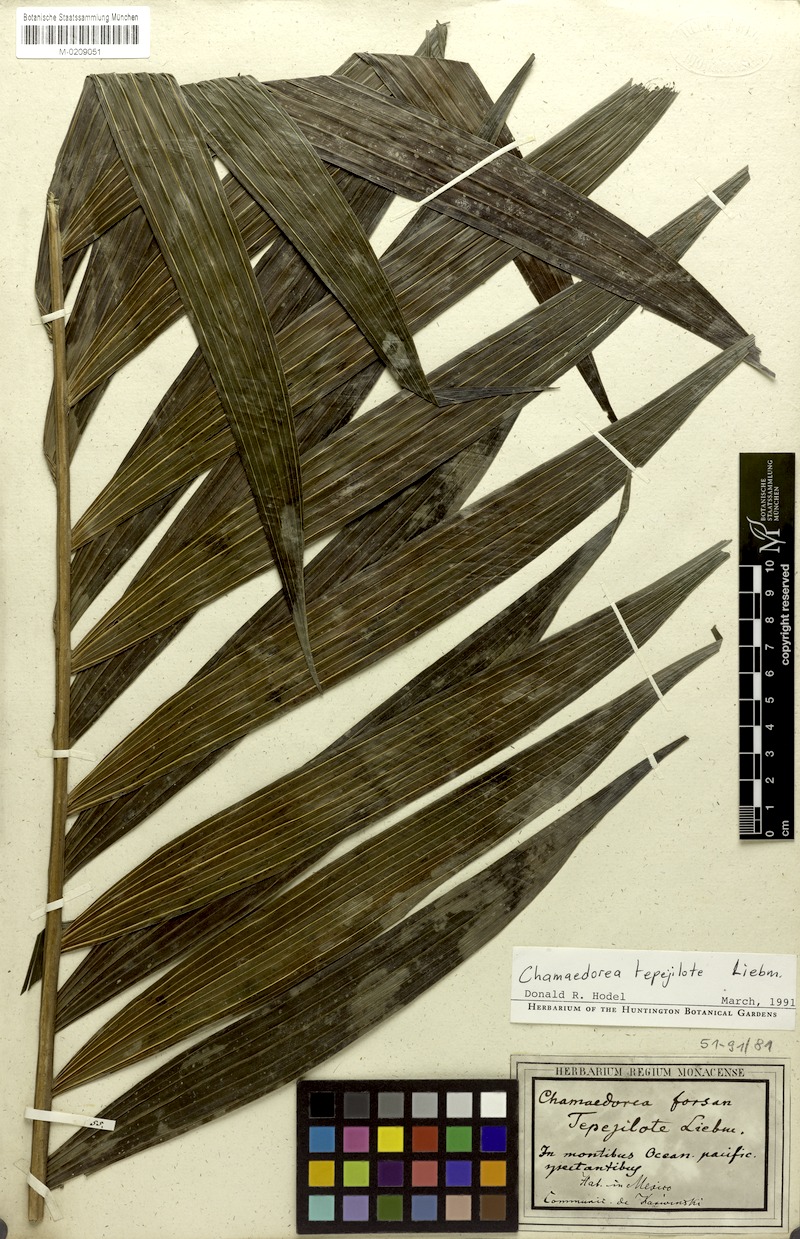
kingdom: Plantae
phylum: Tracheophyta
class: Liliopsida
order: Arecales
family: Arecaceae
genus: Chamaedorea
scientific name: Chamaedorea tepejilote
